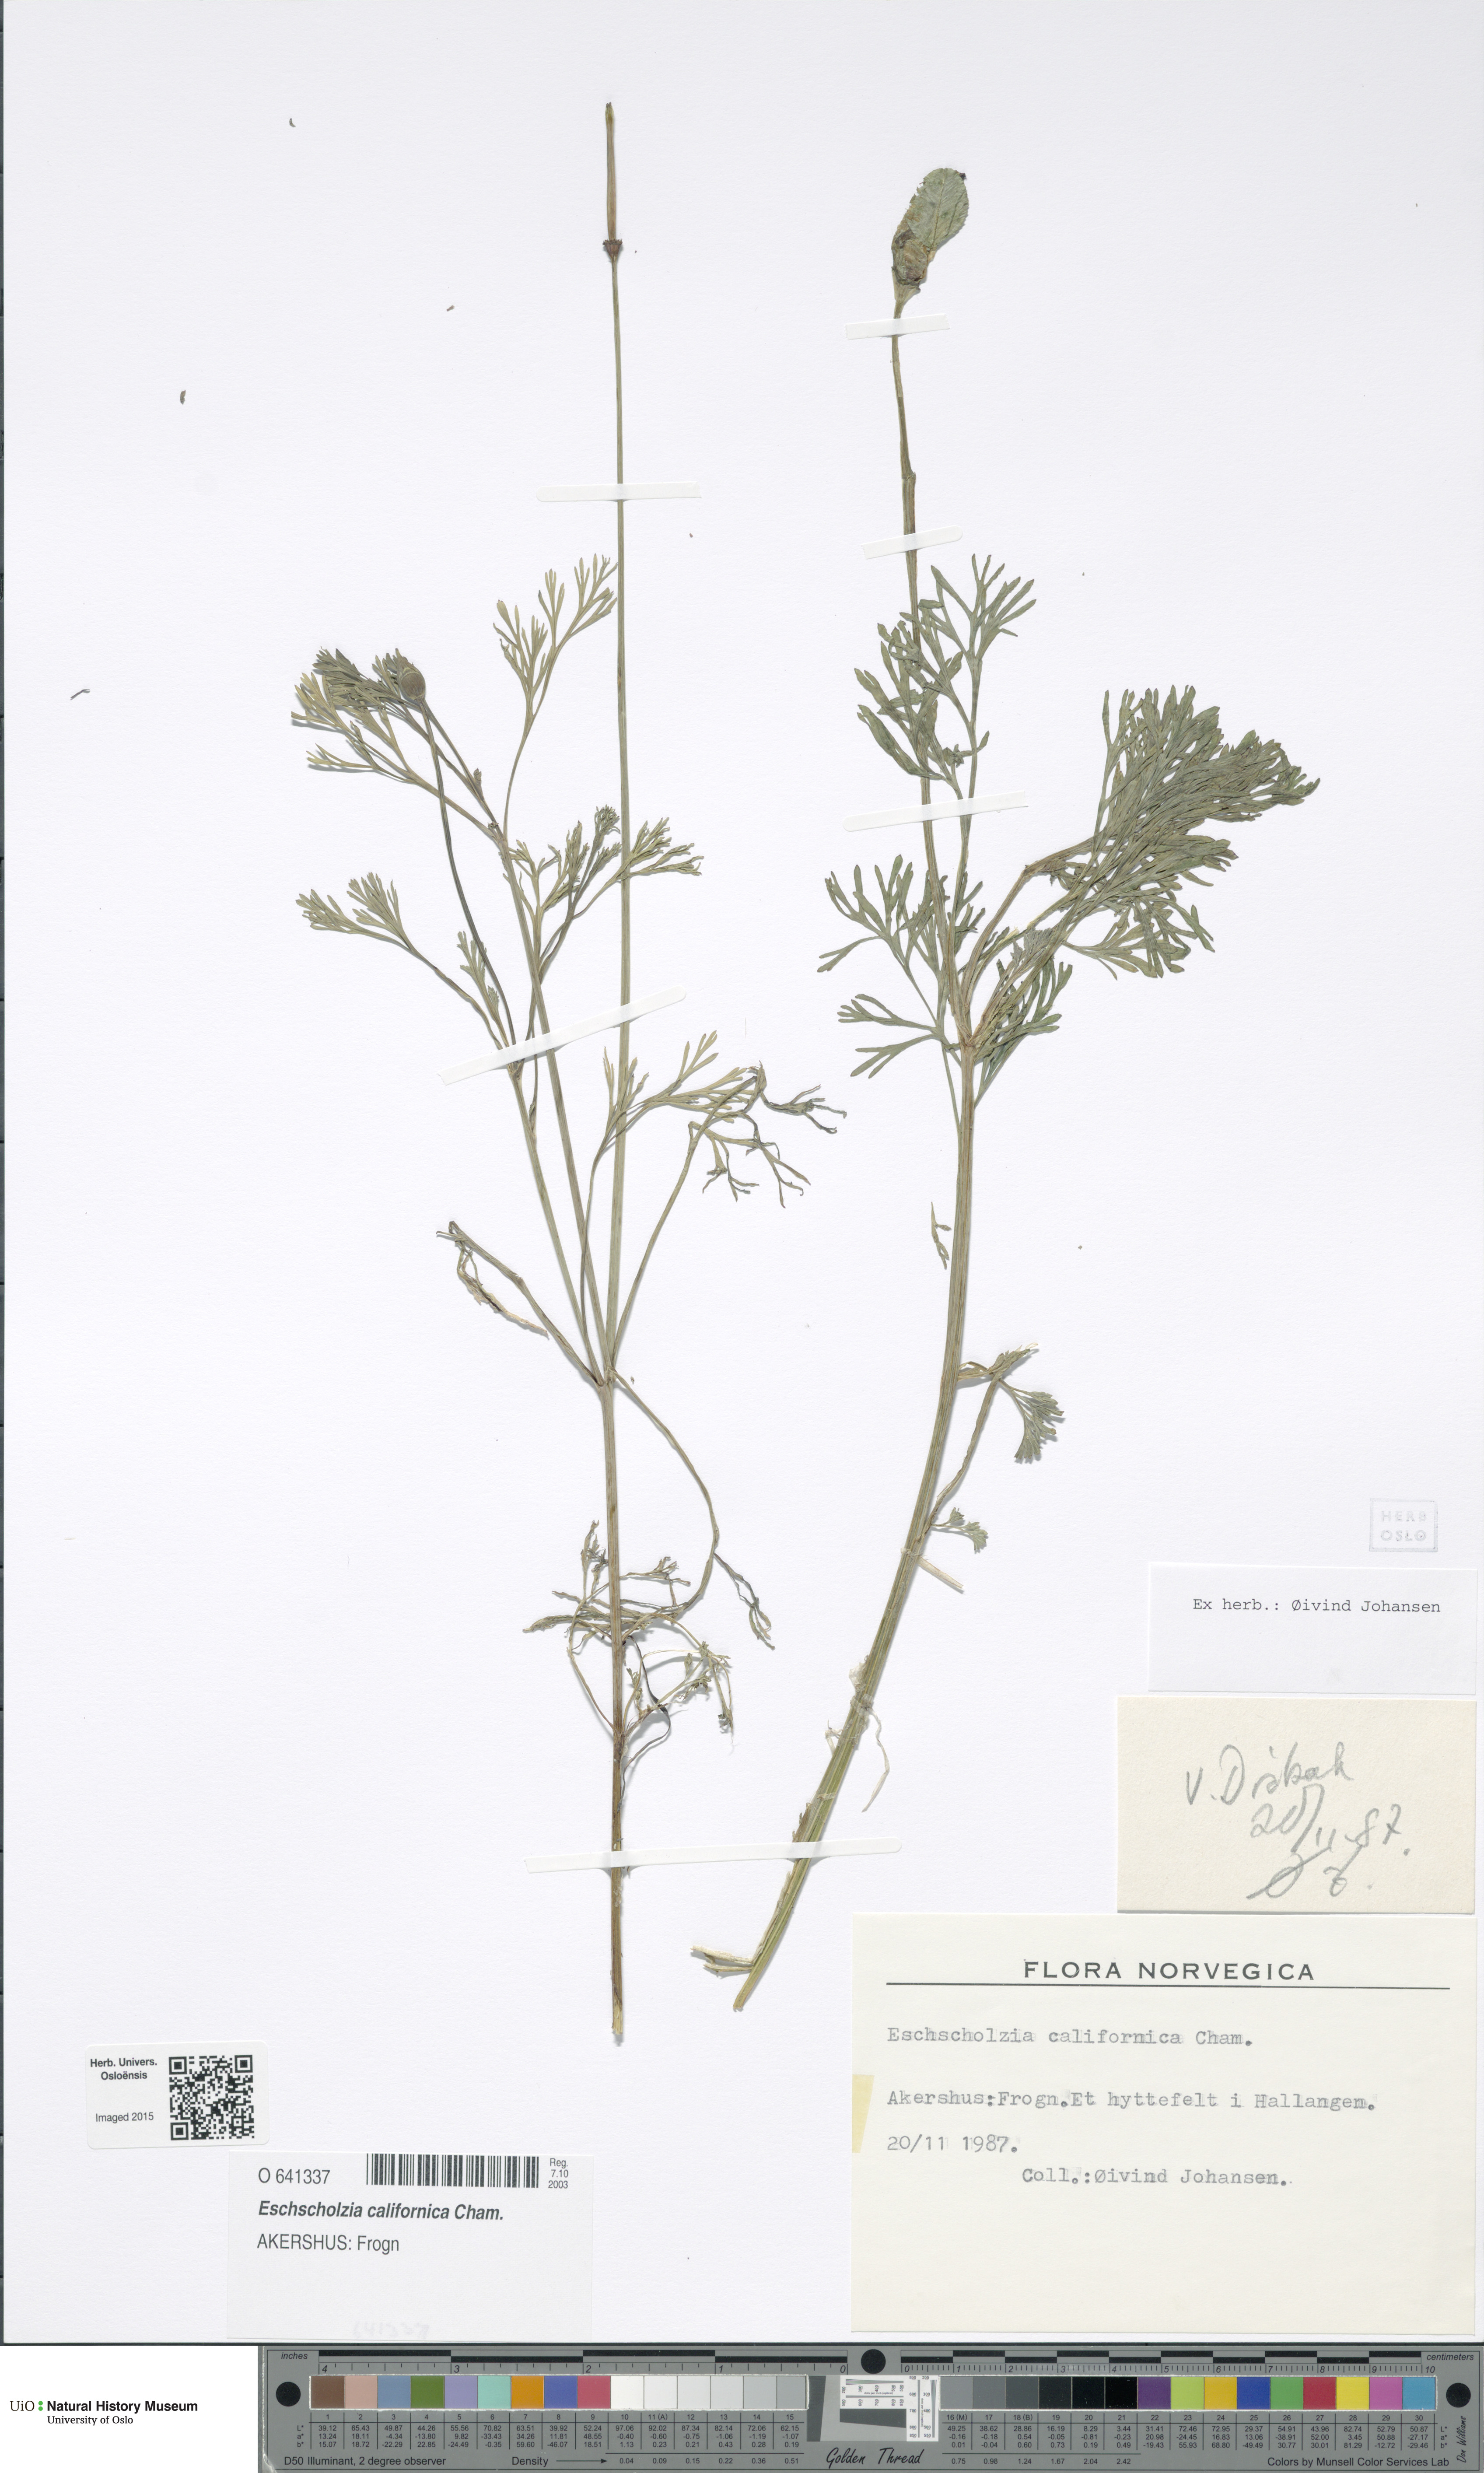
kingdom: Plantae
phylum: Tracheophyta
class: Magnoliopsida
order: Ranunculales
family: Papaveraceae
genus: Eschscholzia
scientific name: Eschscholzia californica
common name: California poppy
